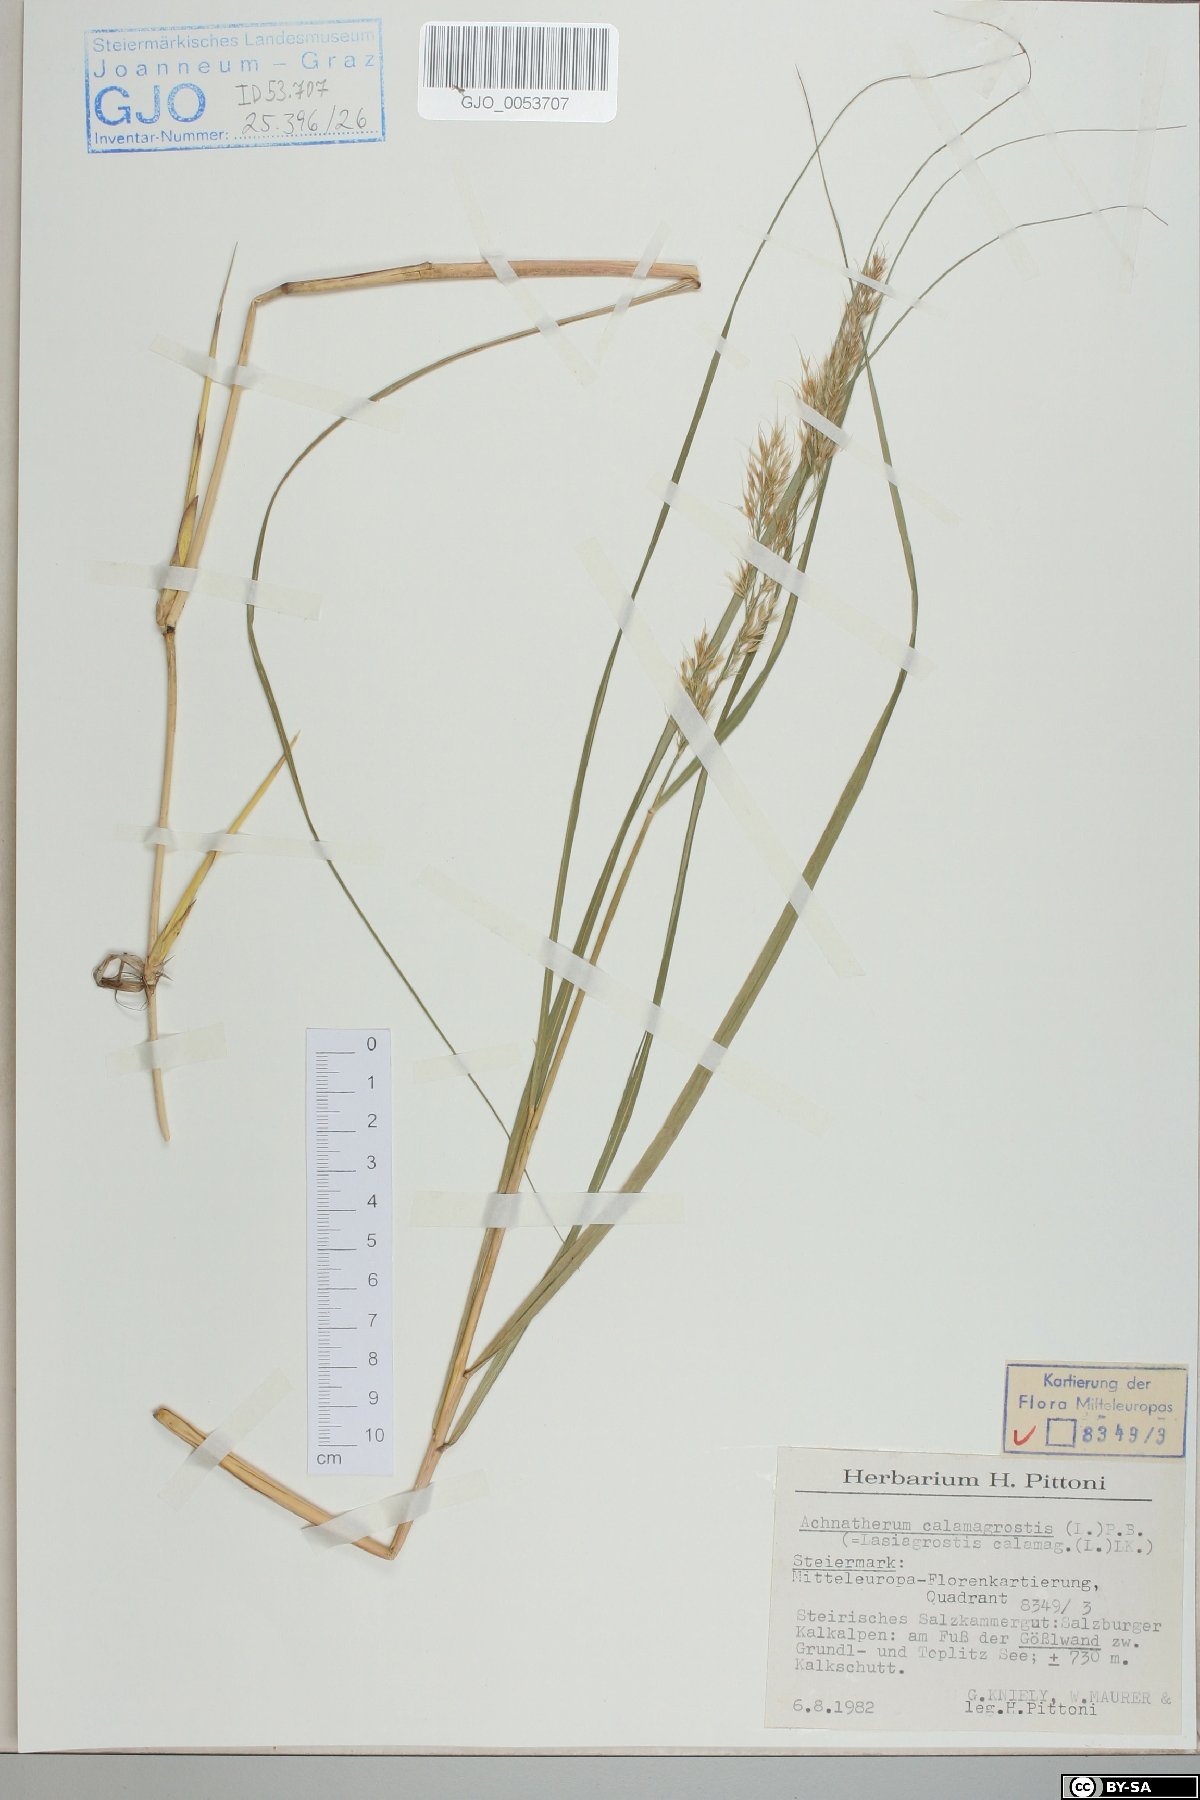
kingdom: Plantae
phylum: Tracheophyta
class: Liliopsida
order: Poales
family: Poaceae
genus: Achnatherum
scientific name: Achnatherum calamagrostis
